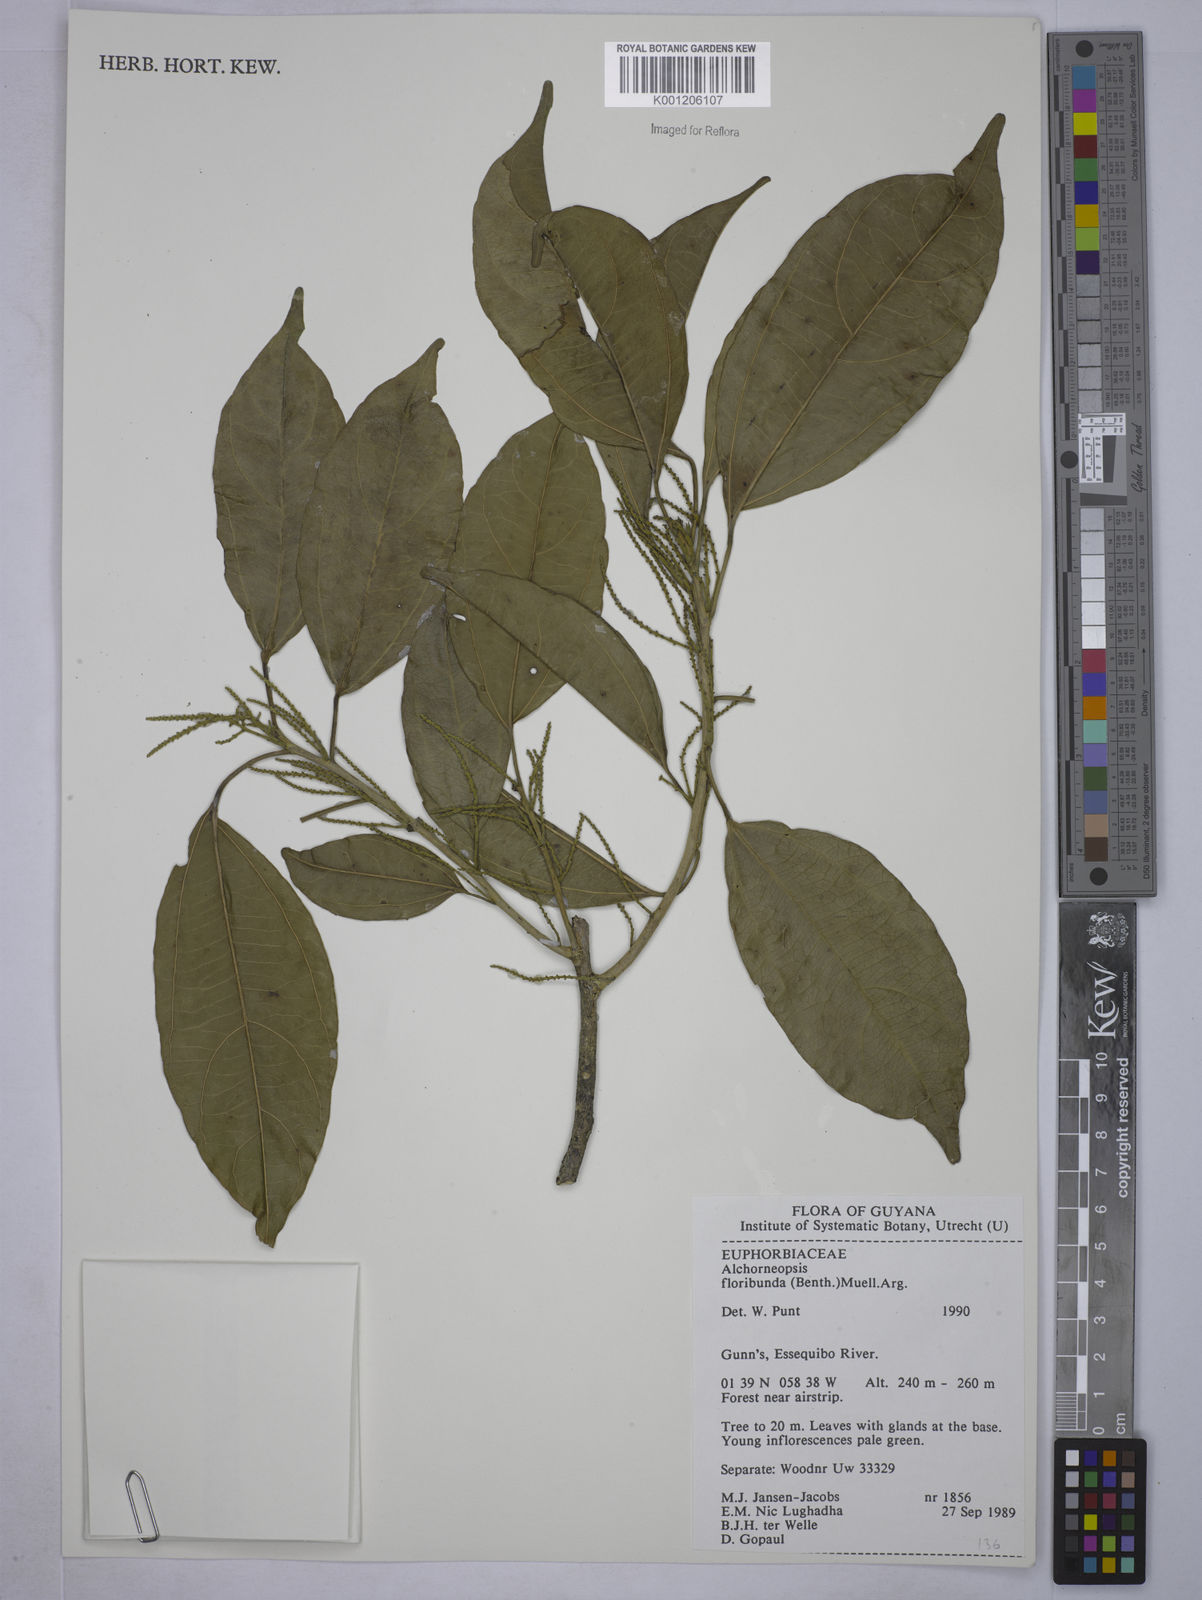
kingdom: Plantae
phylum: Tracheophyta
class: Magnoliopsida
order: Malpighiales
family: Euphorbiaceae
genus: Alchorneopsis
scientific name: Alchorneopsis
